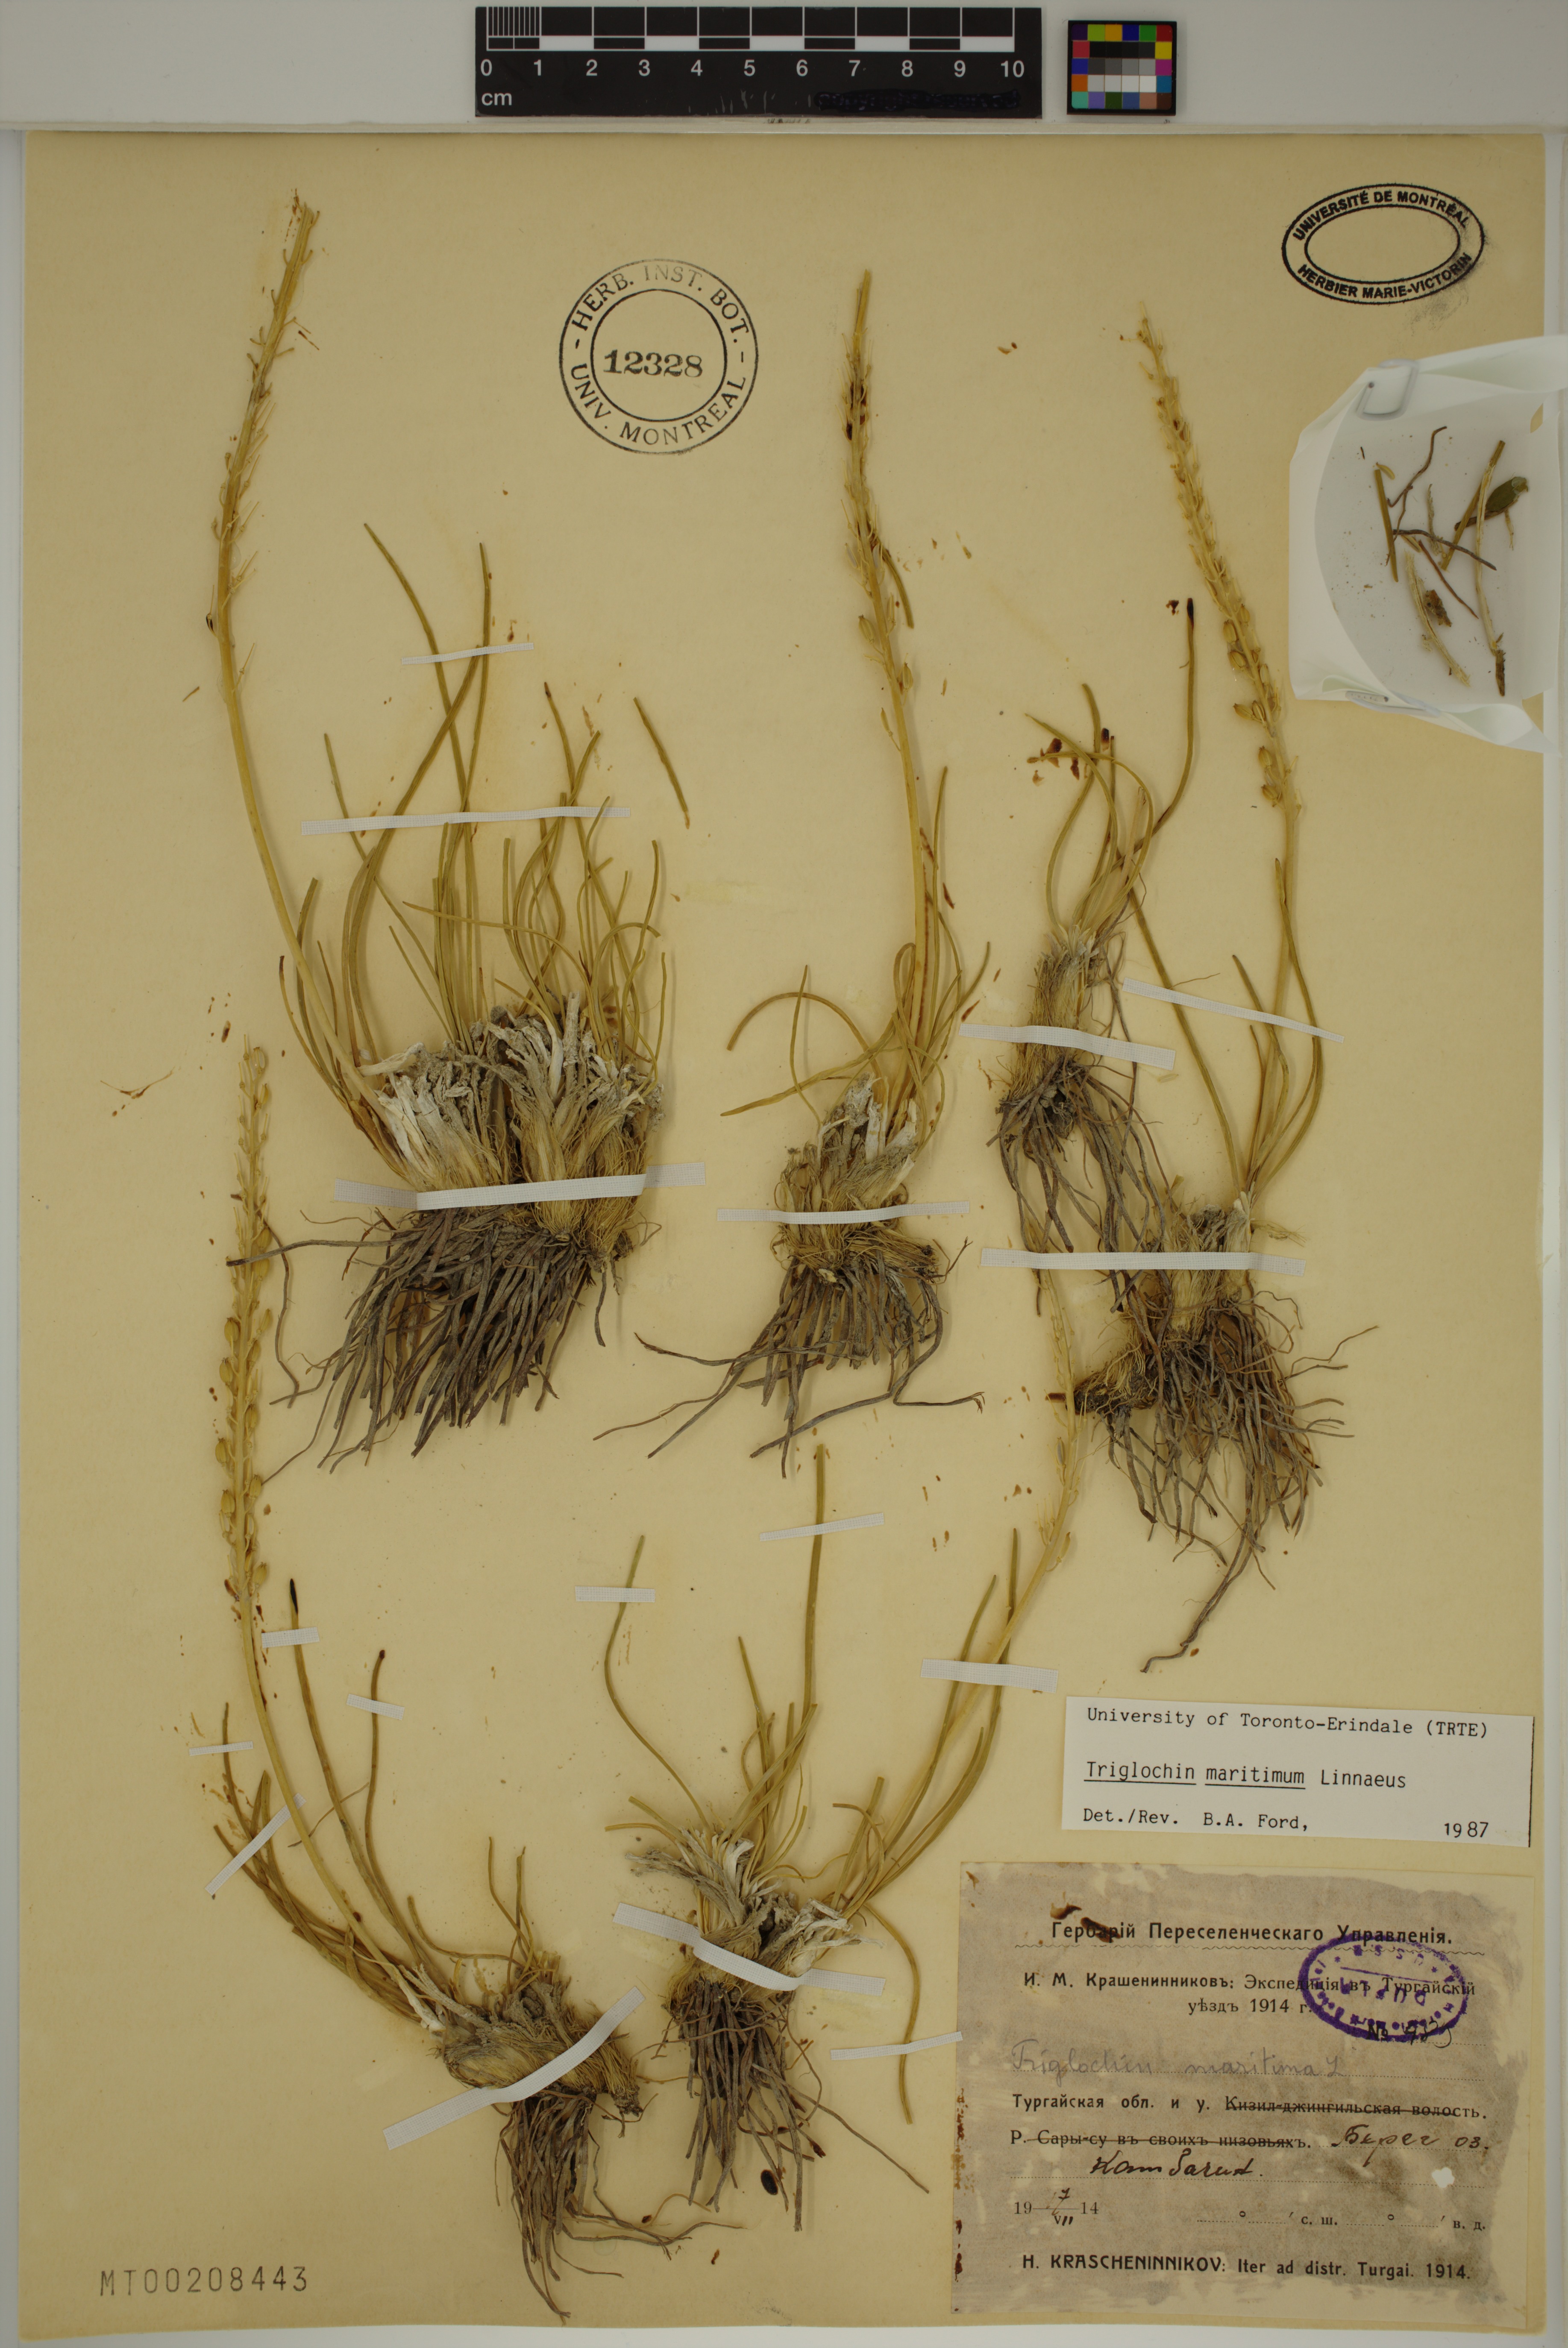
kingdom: Plantae
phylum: Tracheophyta
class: Liliopsida
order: Alismatales
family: Juncaginaceae
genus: Triglochin
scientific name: Triglochin maritima
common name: Sea arrowgrass
